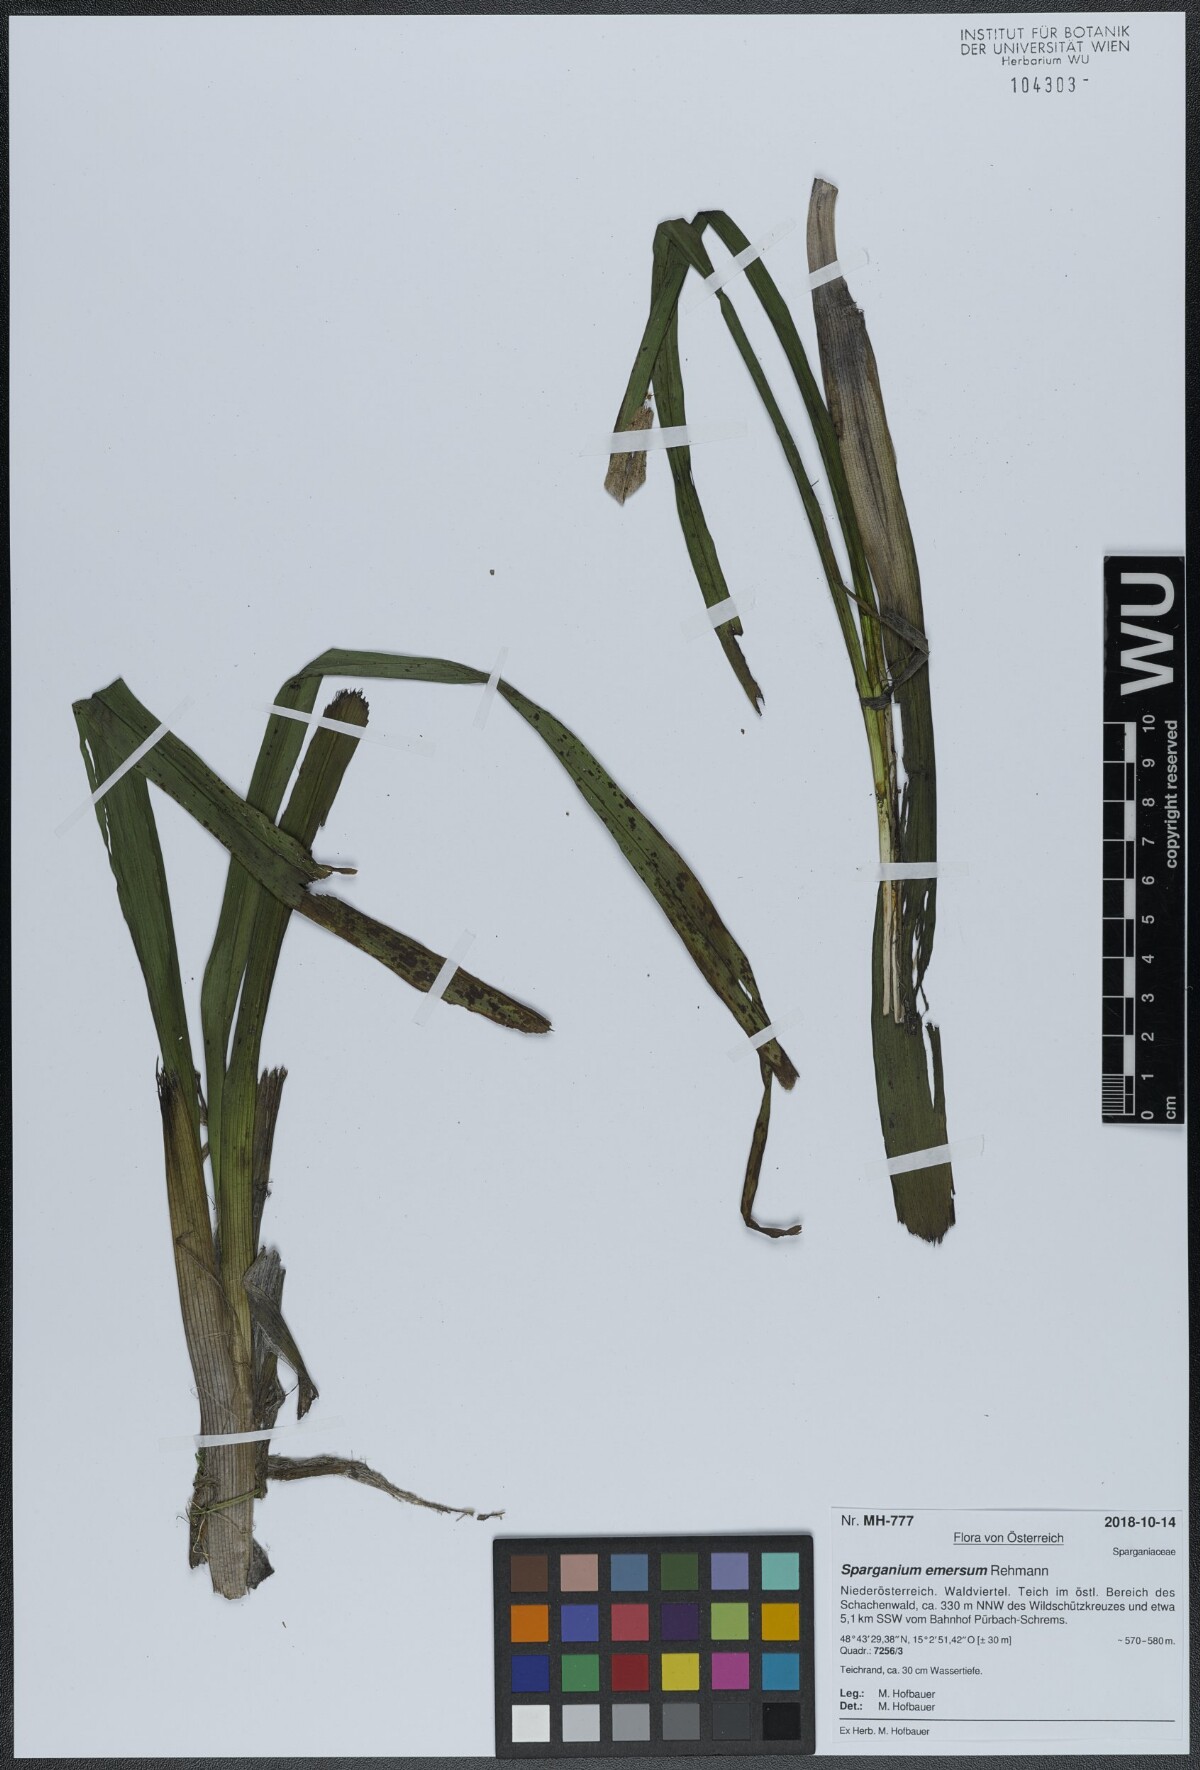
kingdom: Plantae
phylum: Tracheophyta
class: Liliopsida
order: Poales
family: Typhaceae
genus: Sparganium
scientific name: Sparganium emersum
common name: Unbranched bur-reed
